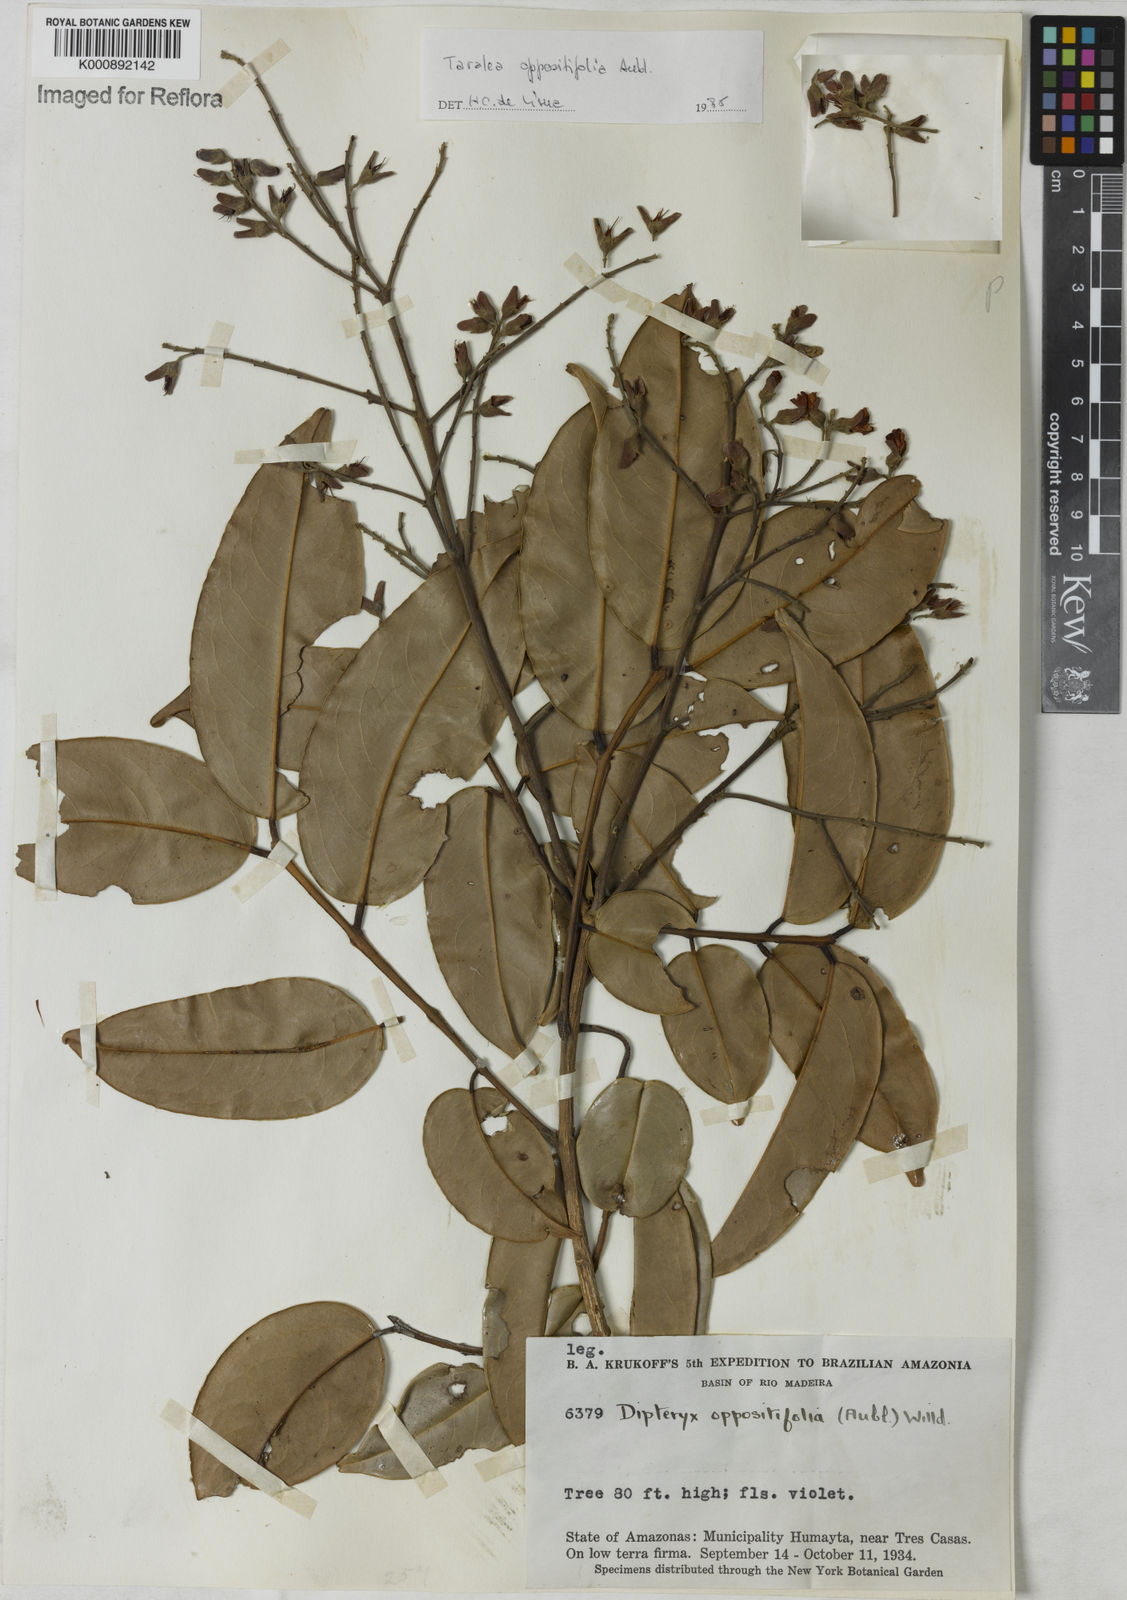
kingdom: Plantae
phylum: Tracheophyta
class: Magnoliopsida
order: Fabales
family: Fabaceae
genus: Taralea
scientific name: Taralea oppositifolia
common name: Tonka
